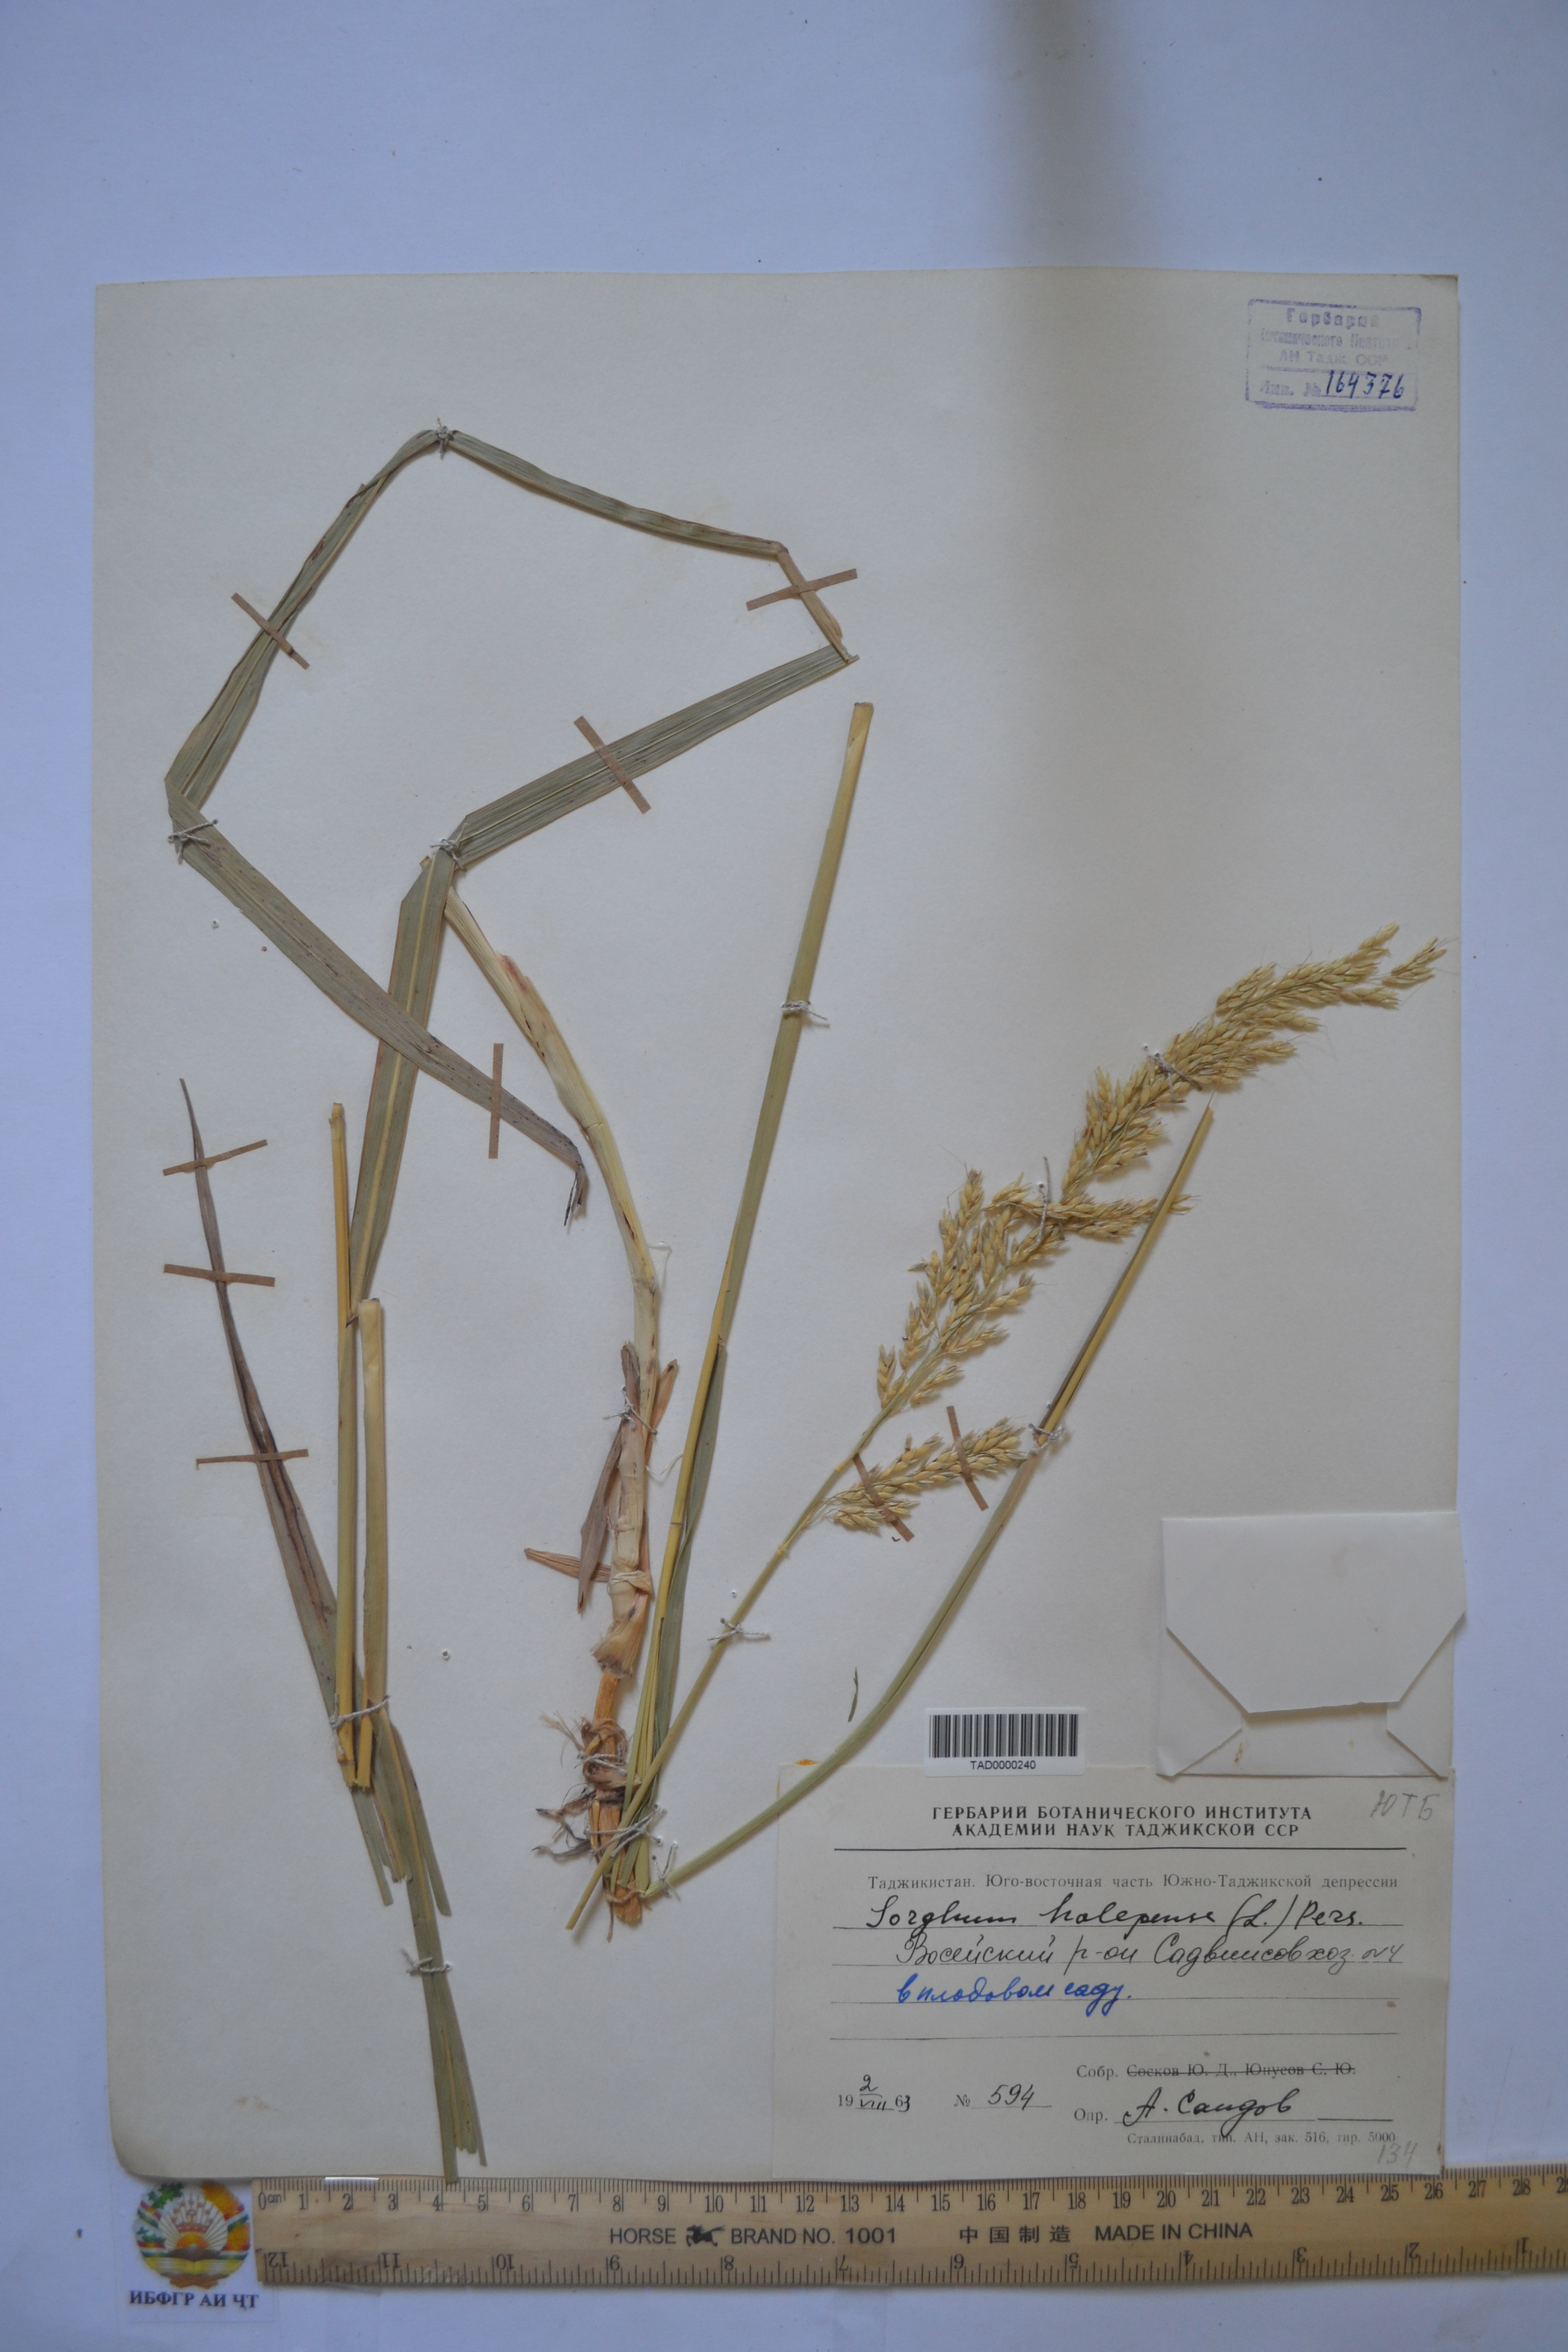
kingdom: Plantae
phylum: Tracheophyta
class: Liliopsida
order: Poales
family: Poaceae
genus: Sorghum
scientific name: Sorghum halepense
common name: Johnson-grass
